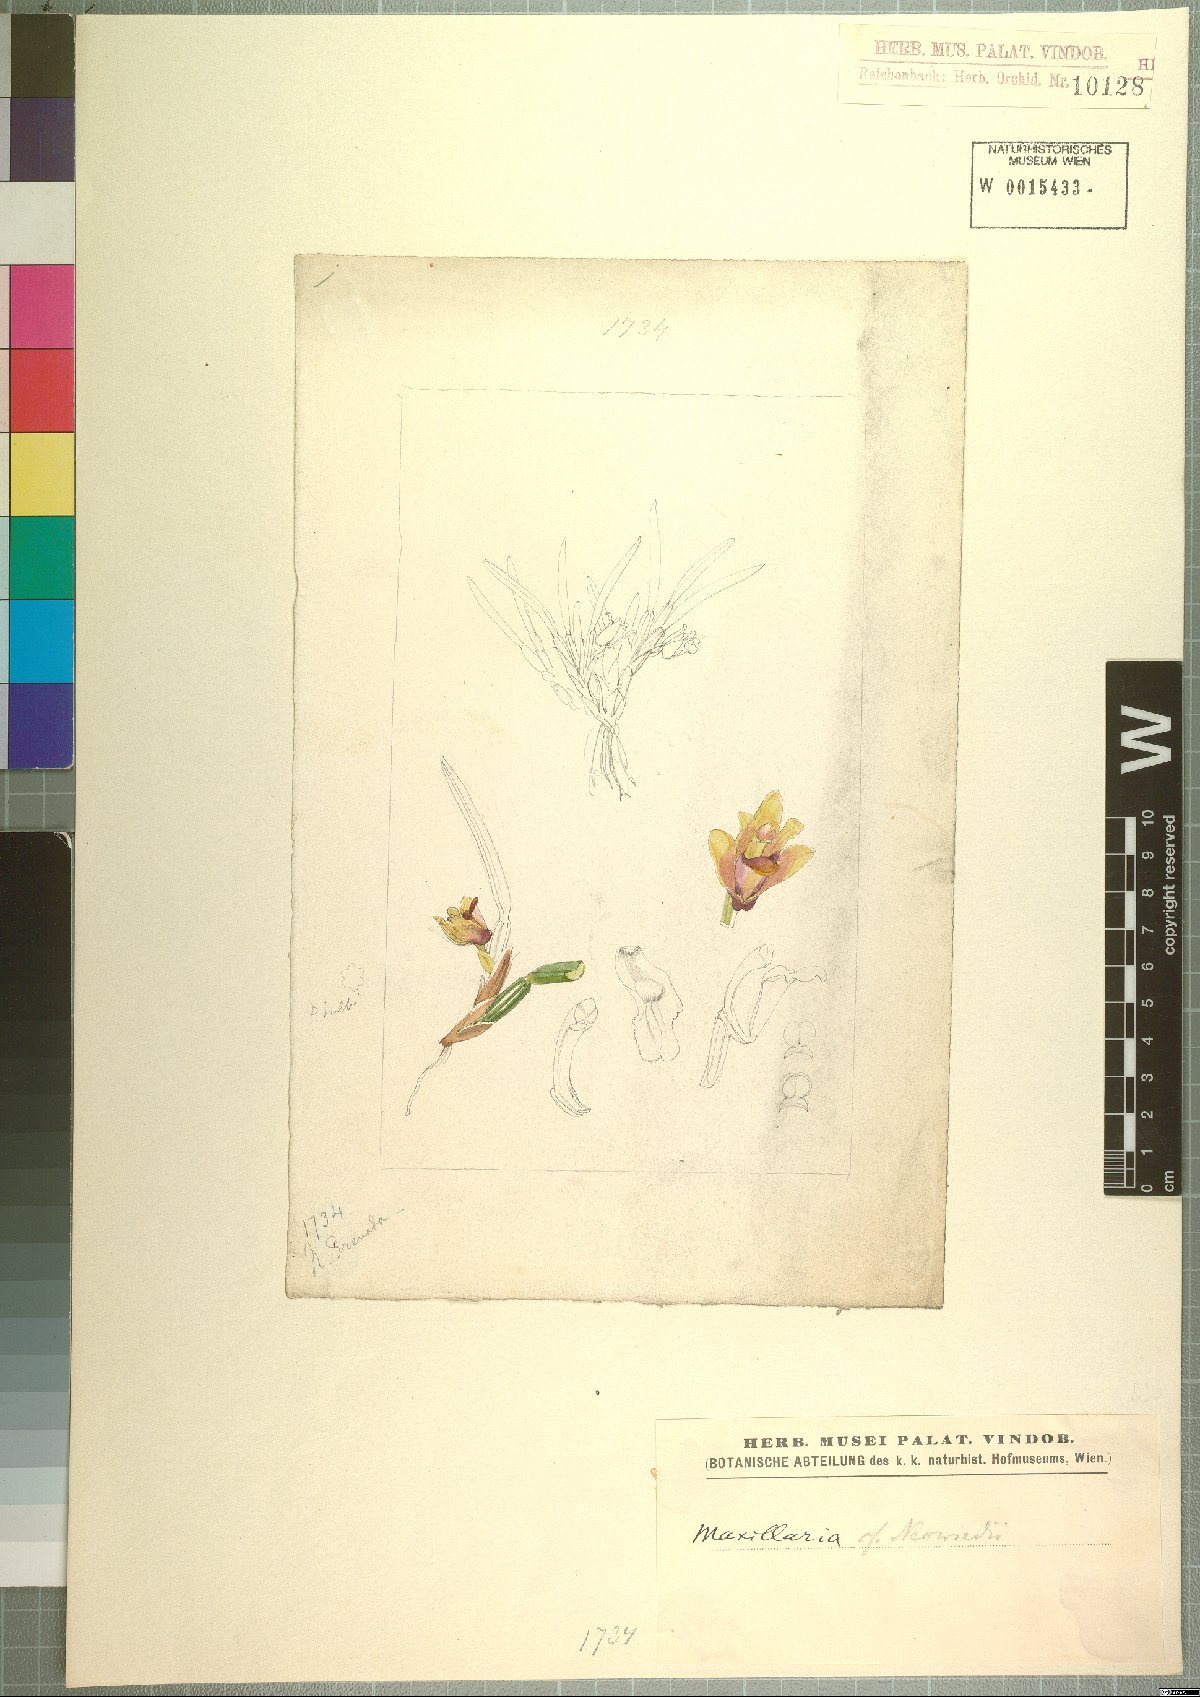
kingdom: Plantae
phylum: Tracheophyta
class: Liliopsida
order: Asparagales
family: Orchidaceae
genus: Maxillaria
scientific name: Maxillaria neowiedii
